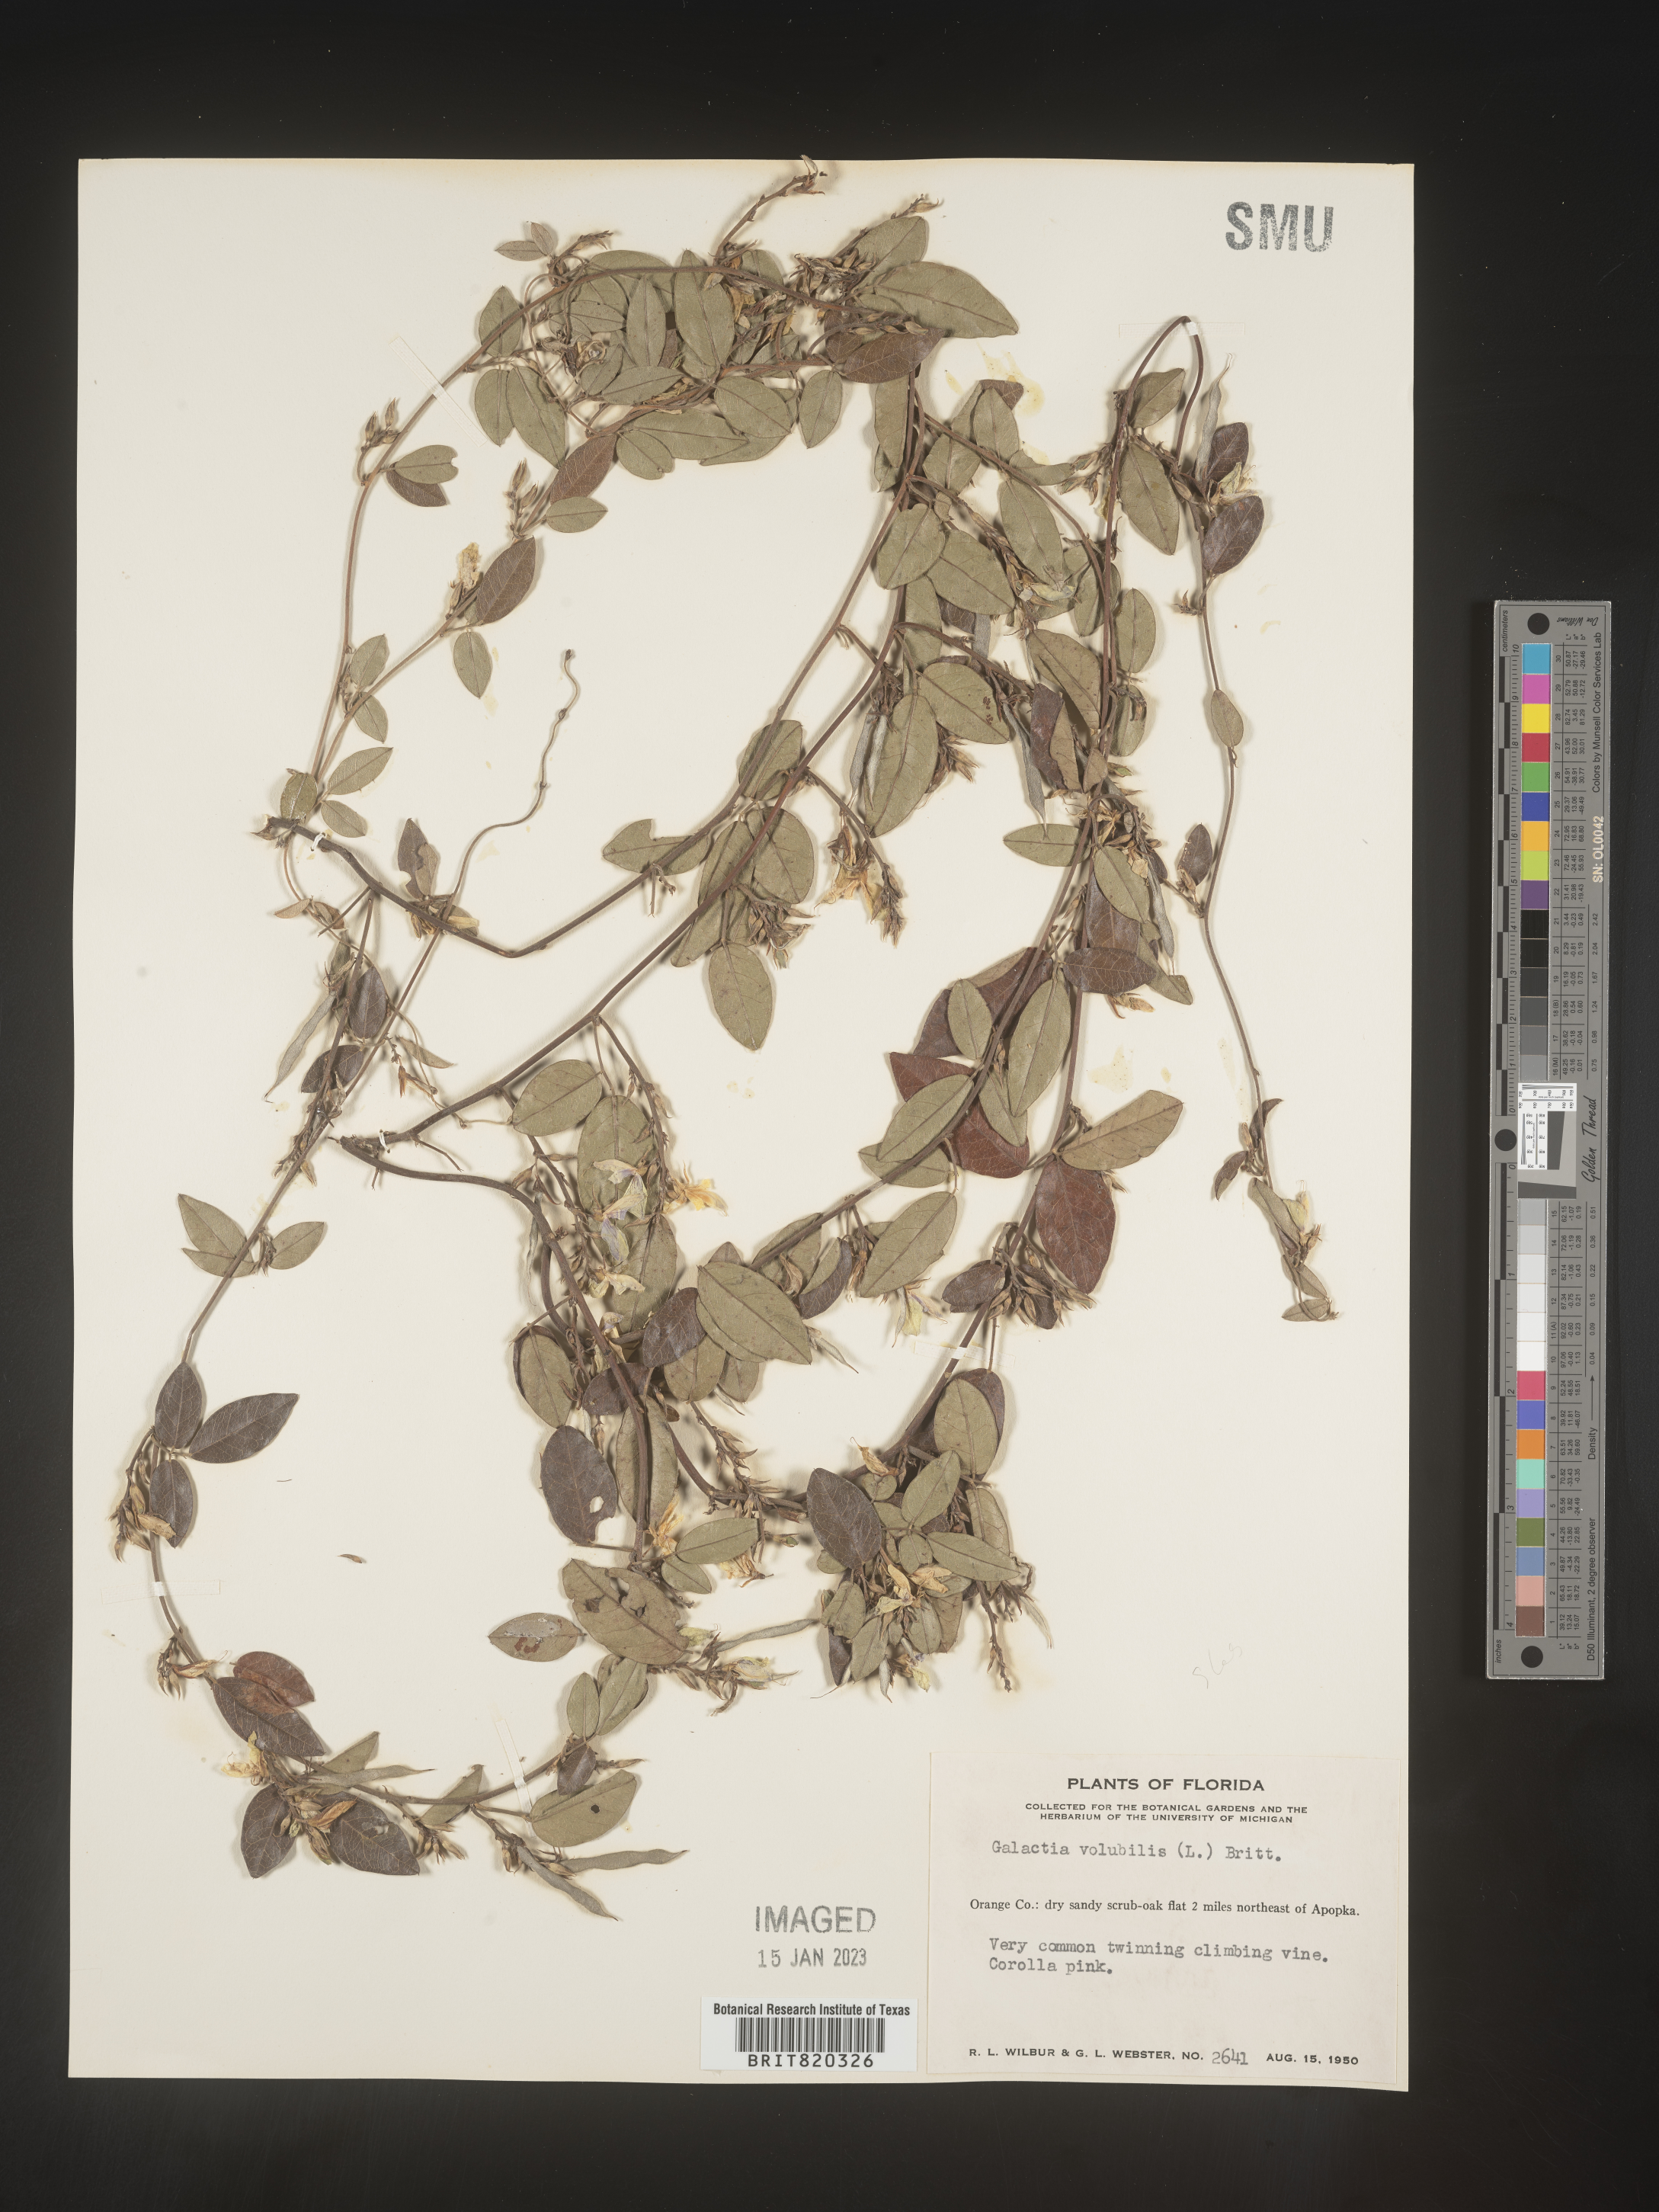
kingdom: Plantae
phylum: Tracheophyta
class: Magnoliopsida
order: Fabales
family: Fabaceae
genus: Galactia
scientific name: Galactia regularis
